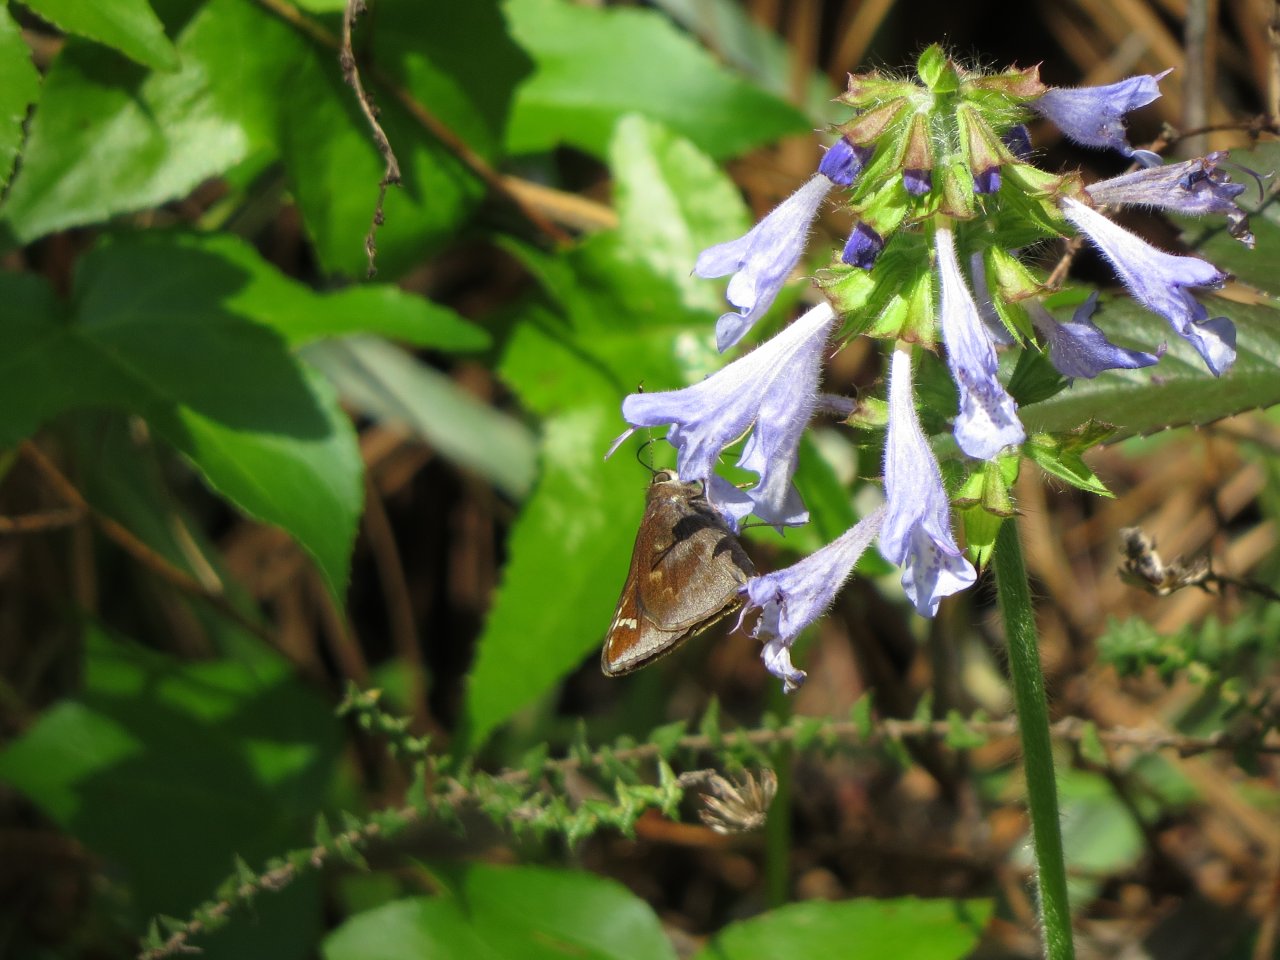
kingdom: Animalia
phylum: Arthropoda
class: Insecta
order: Lepidoptera
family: Hesperiidae
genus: Lerema
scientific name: Lerema accius
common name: Clouded Skipper
